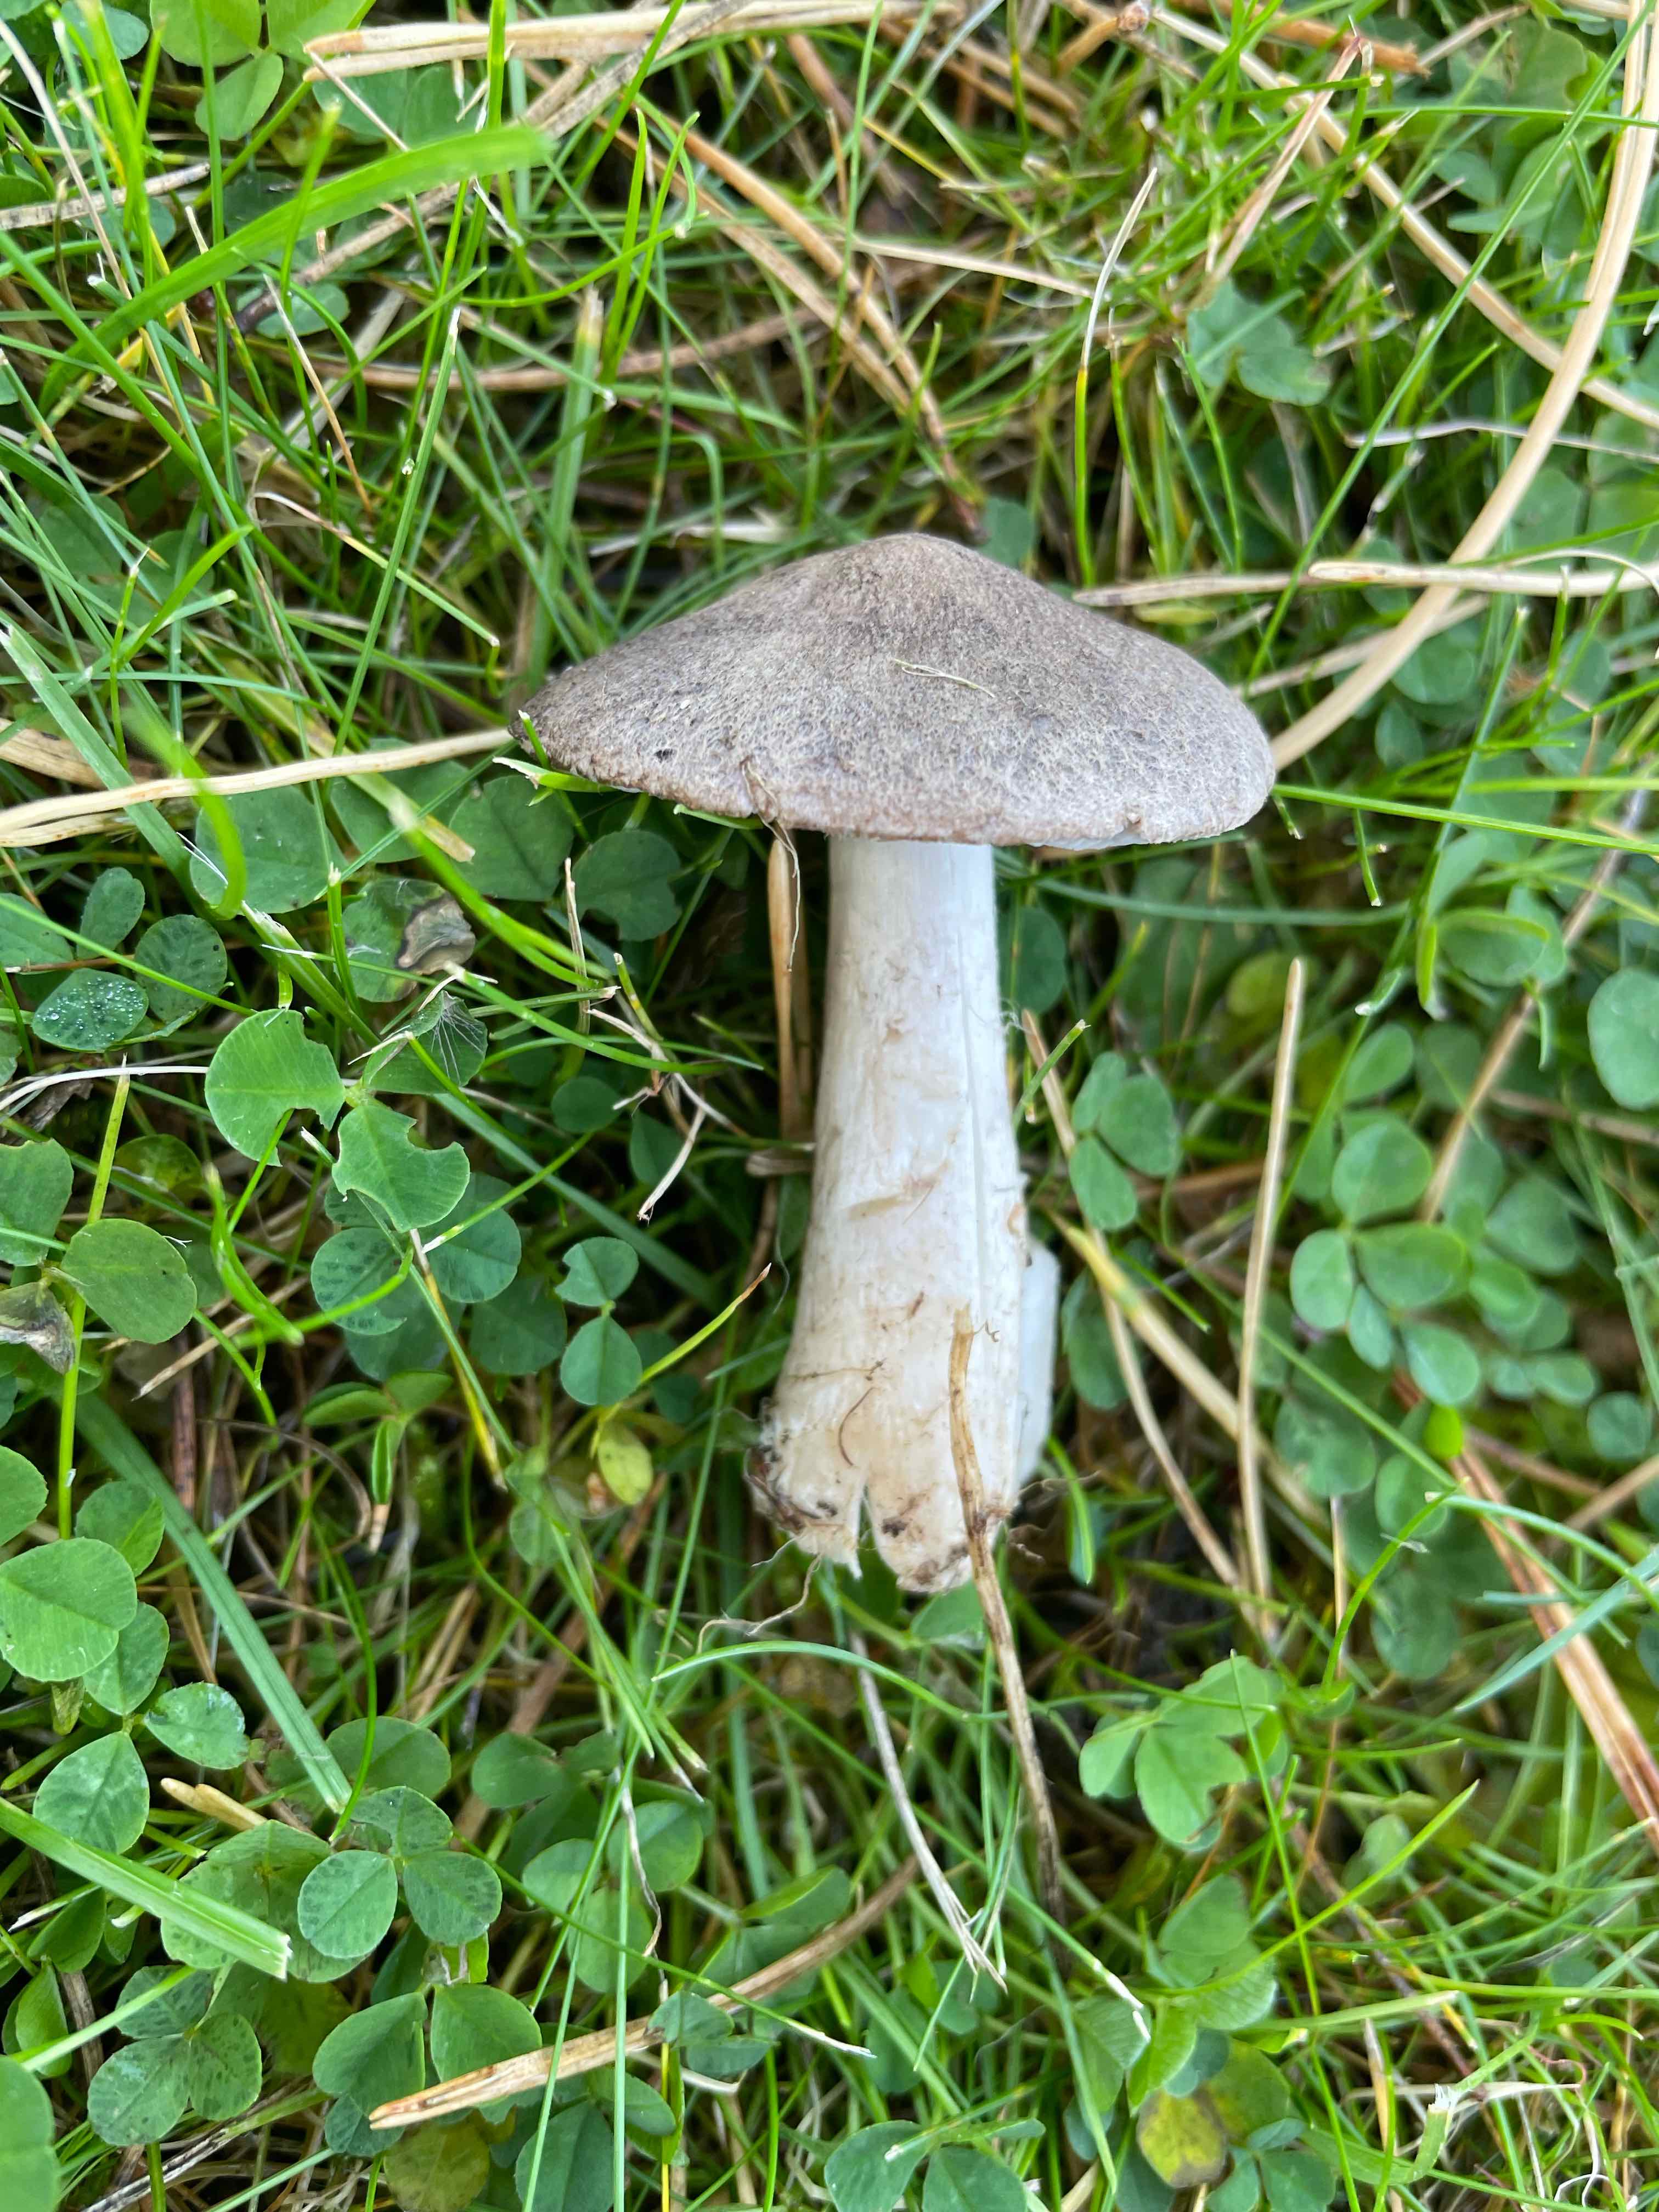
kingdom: Fungi
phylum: Basidiomycota
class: Agaricomycetes
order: Agaricales
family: Tricholomataceae
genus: Tricholoma
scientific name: Tricholoma
